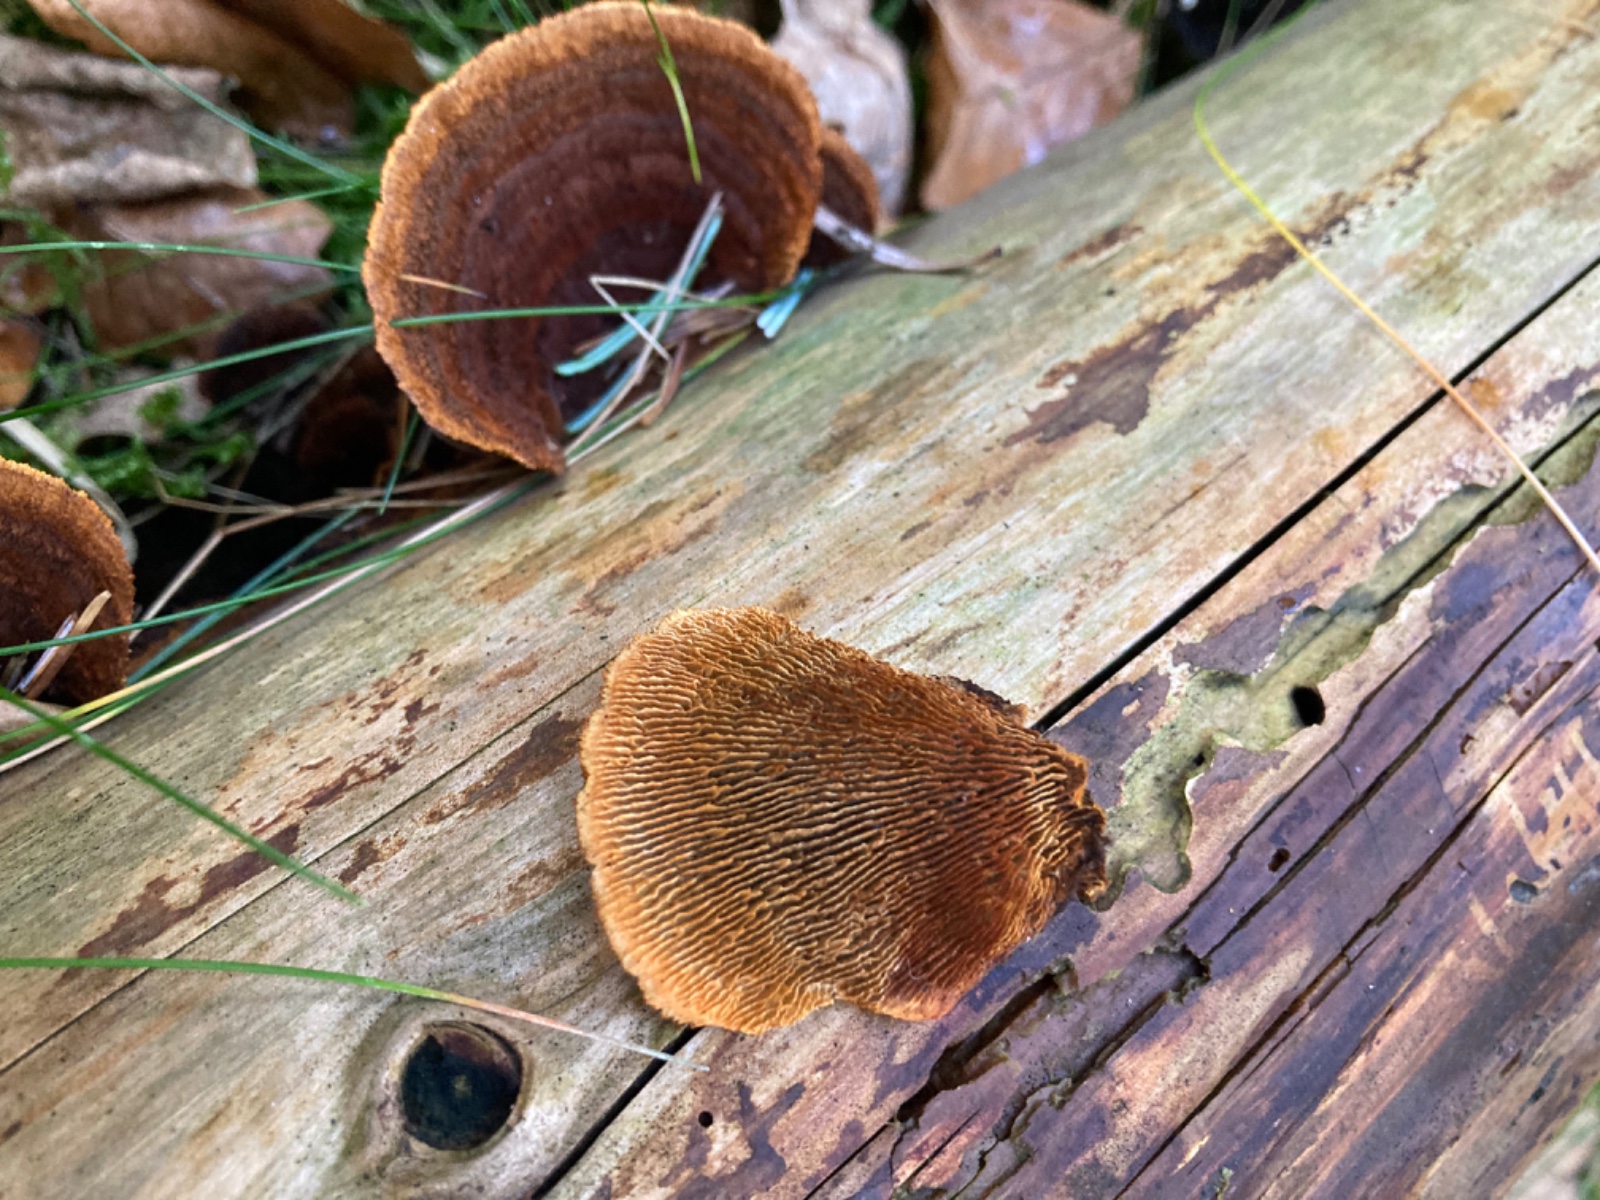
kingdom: Fungi
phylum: Basidiomycota
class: Agaricomycetes
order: Gloeophyllales
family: Gloeophyllaceae
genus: Gloeophyllum
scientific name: Gloeophyllum sepiarium
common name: fyrre-korkhat
